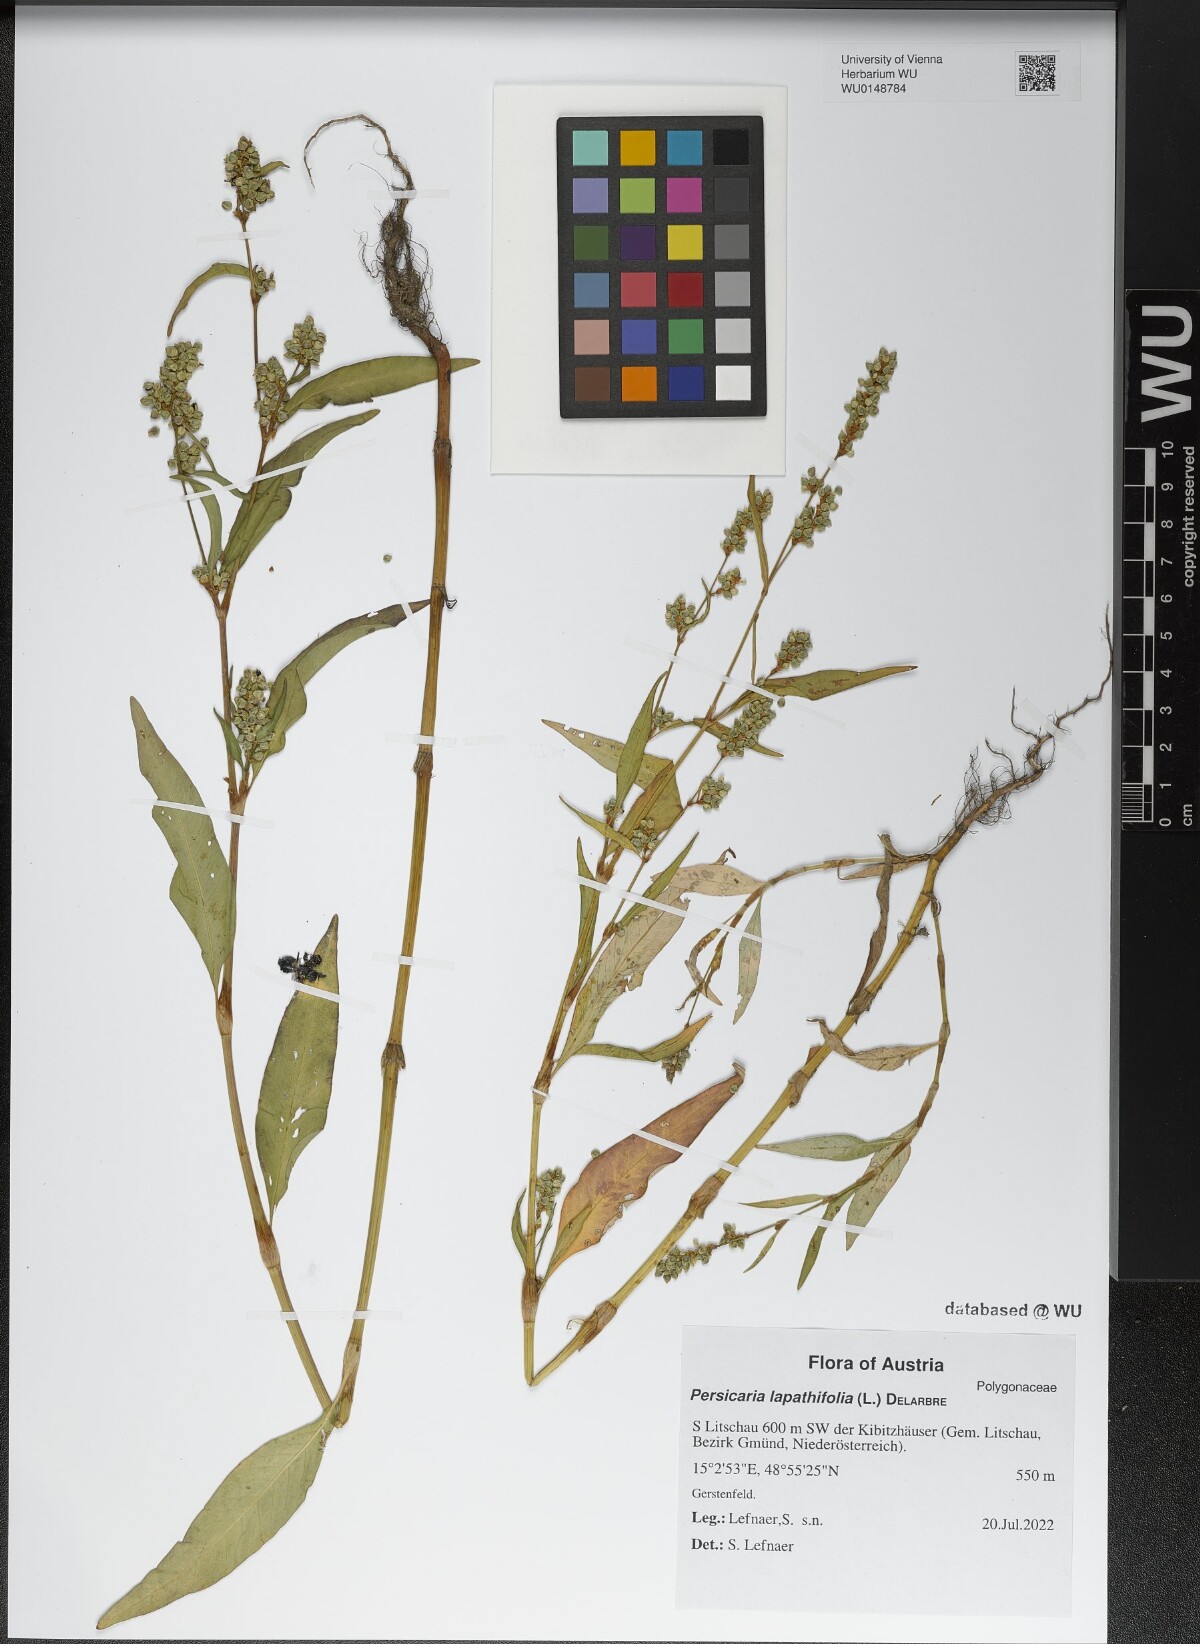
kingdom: Plantae
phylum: Tracheophyta
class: Magnoliopsida
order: Caryophyllales
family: Polygonaceae
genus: Persicaria
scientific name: Persicaria lapathifolia
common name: Curlytop knotweed
